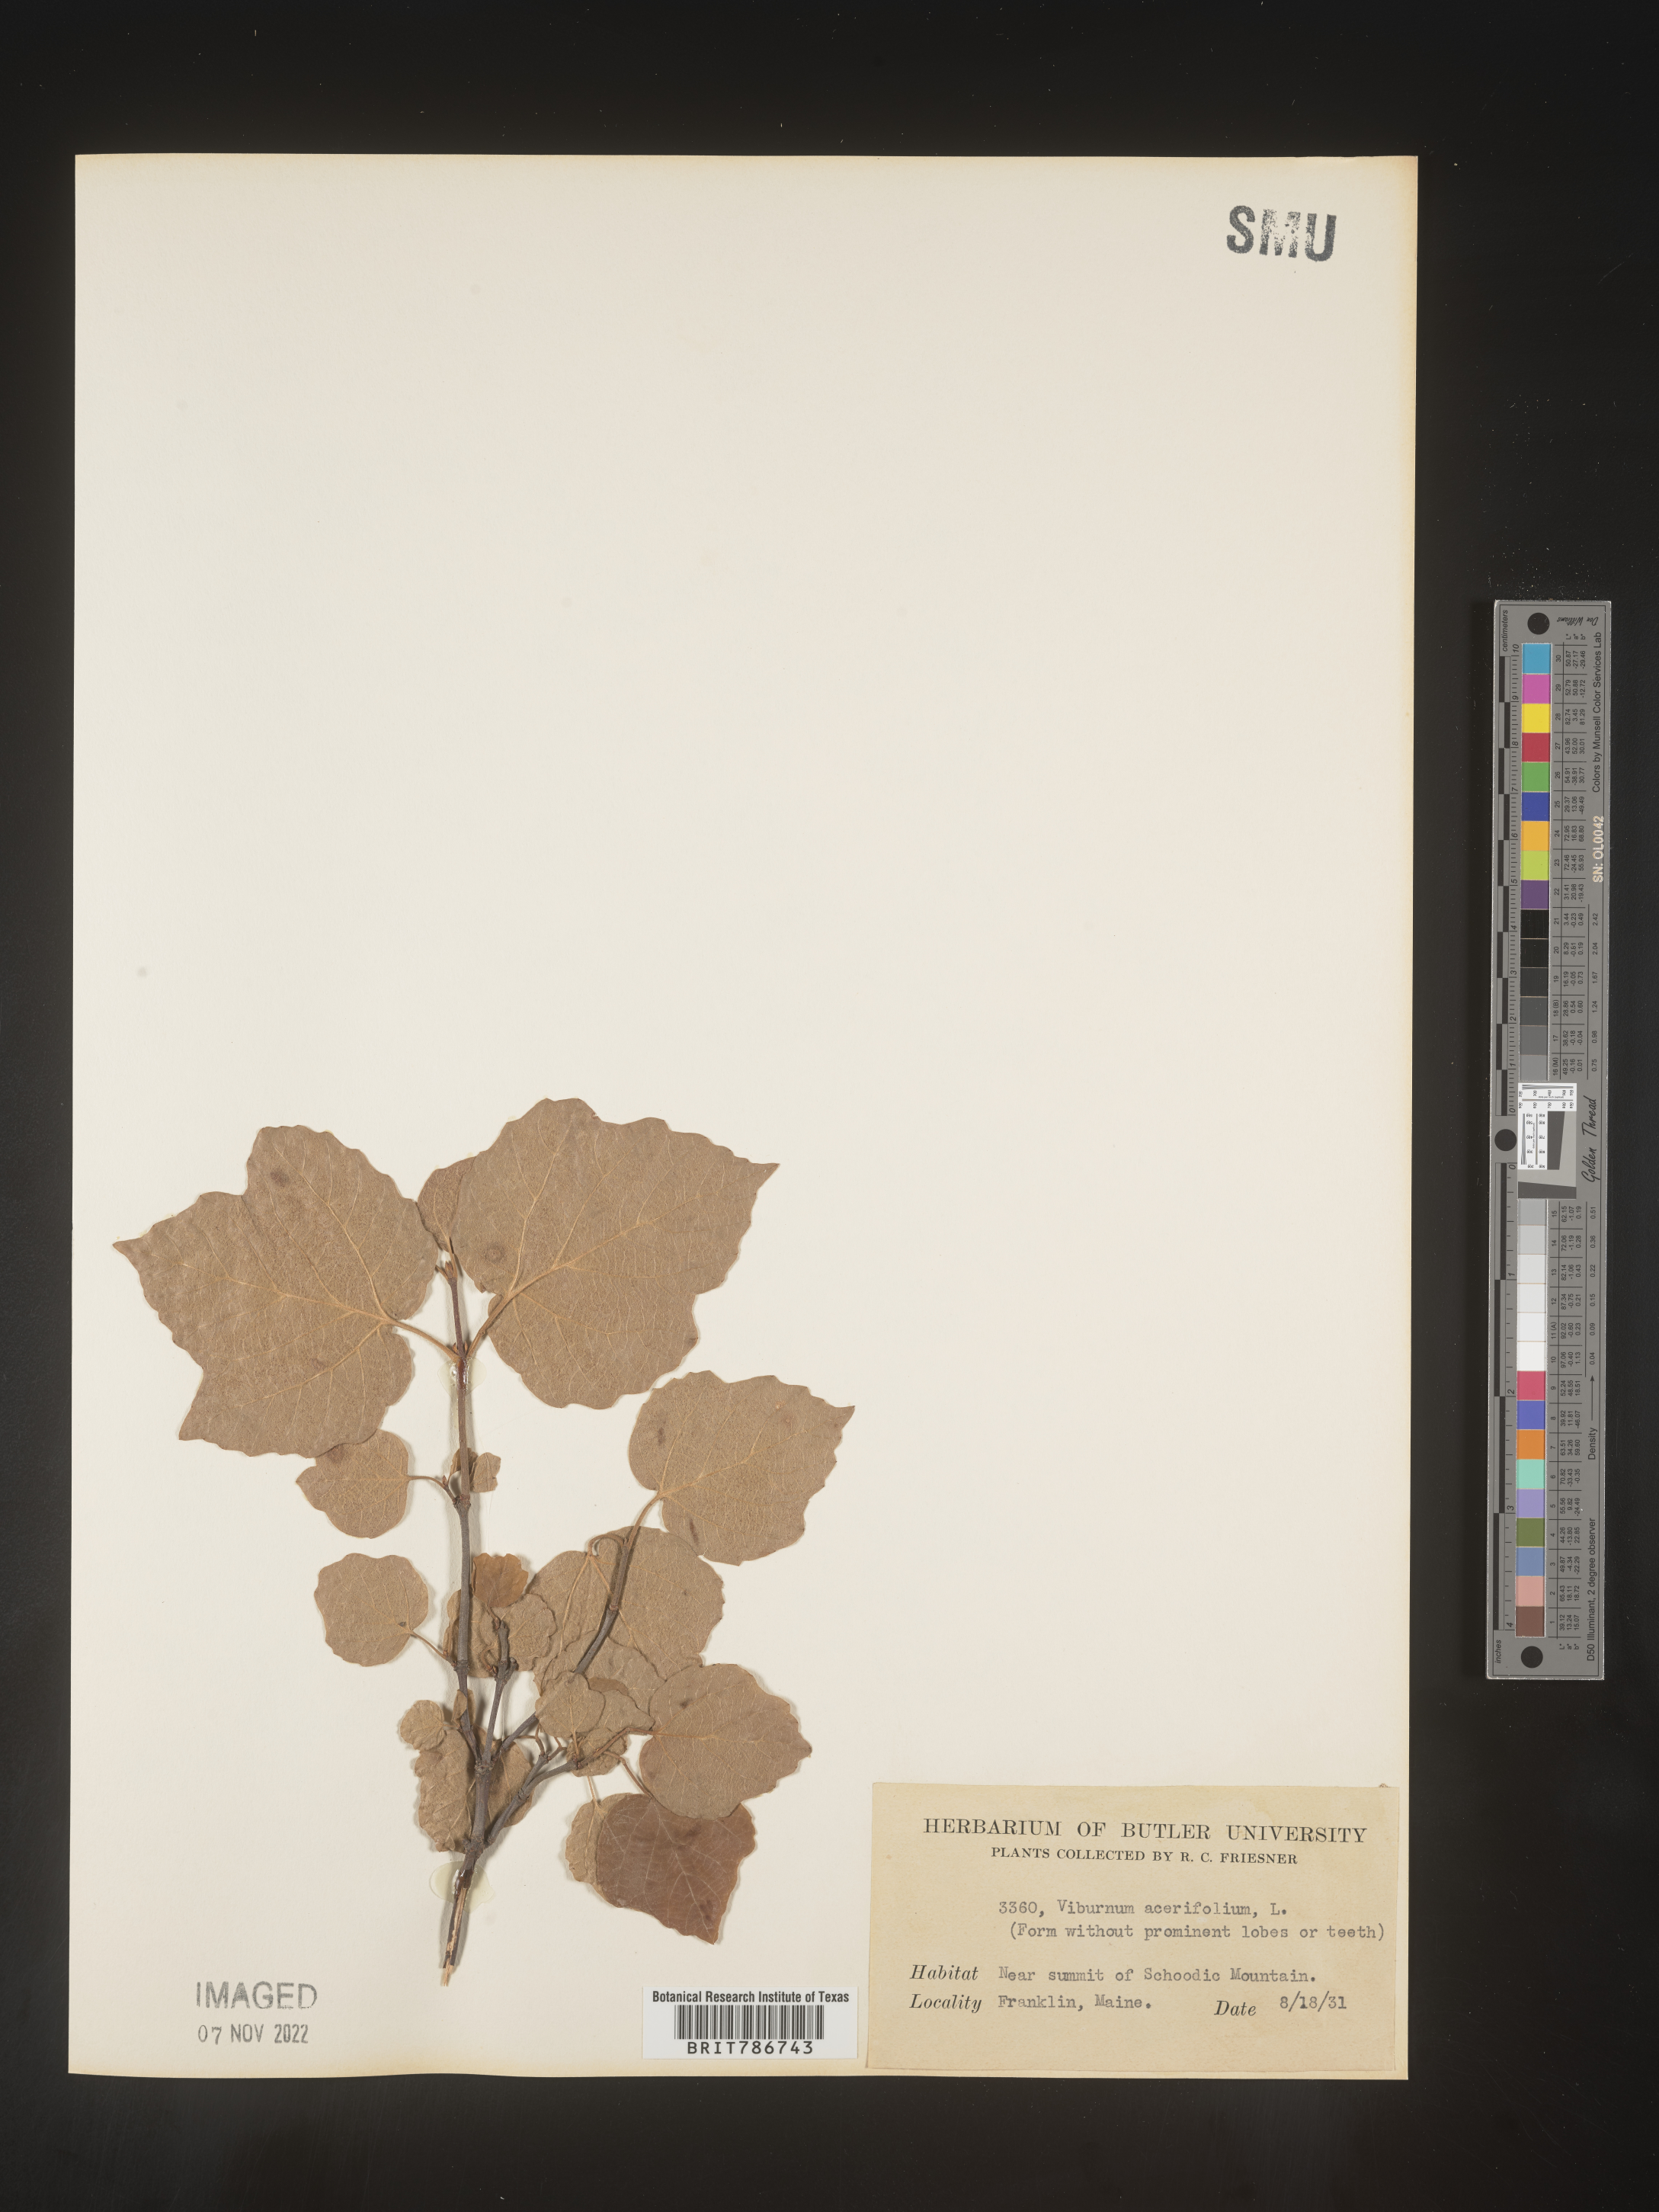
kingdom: Plantae
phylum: Tracheophyta
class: Magnoliopsida
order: Dipsacales
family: Viburnaceae
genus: Viburnum
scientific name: Viburnum acerifolium
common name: Dockmackie
